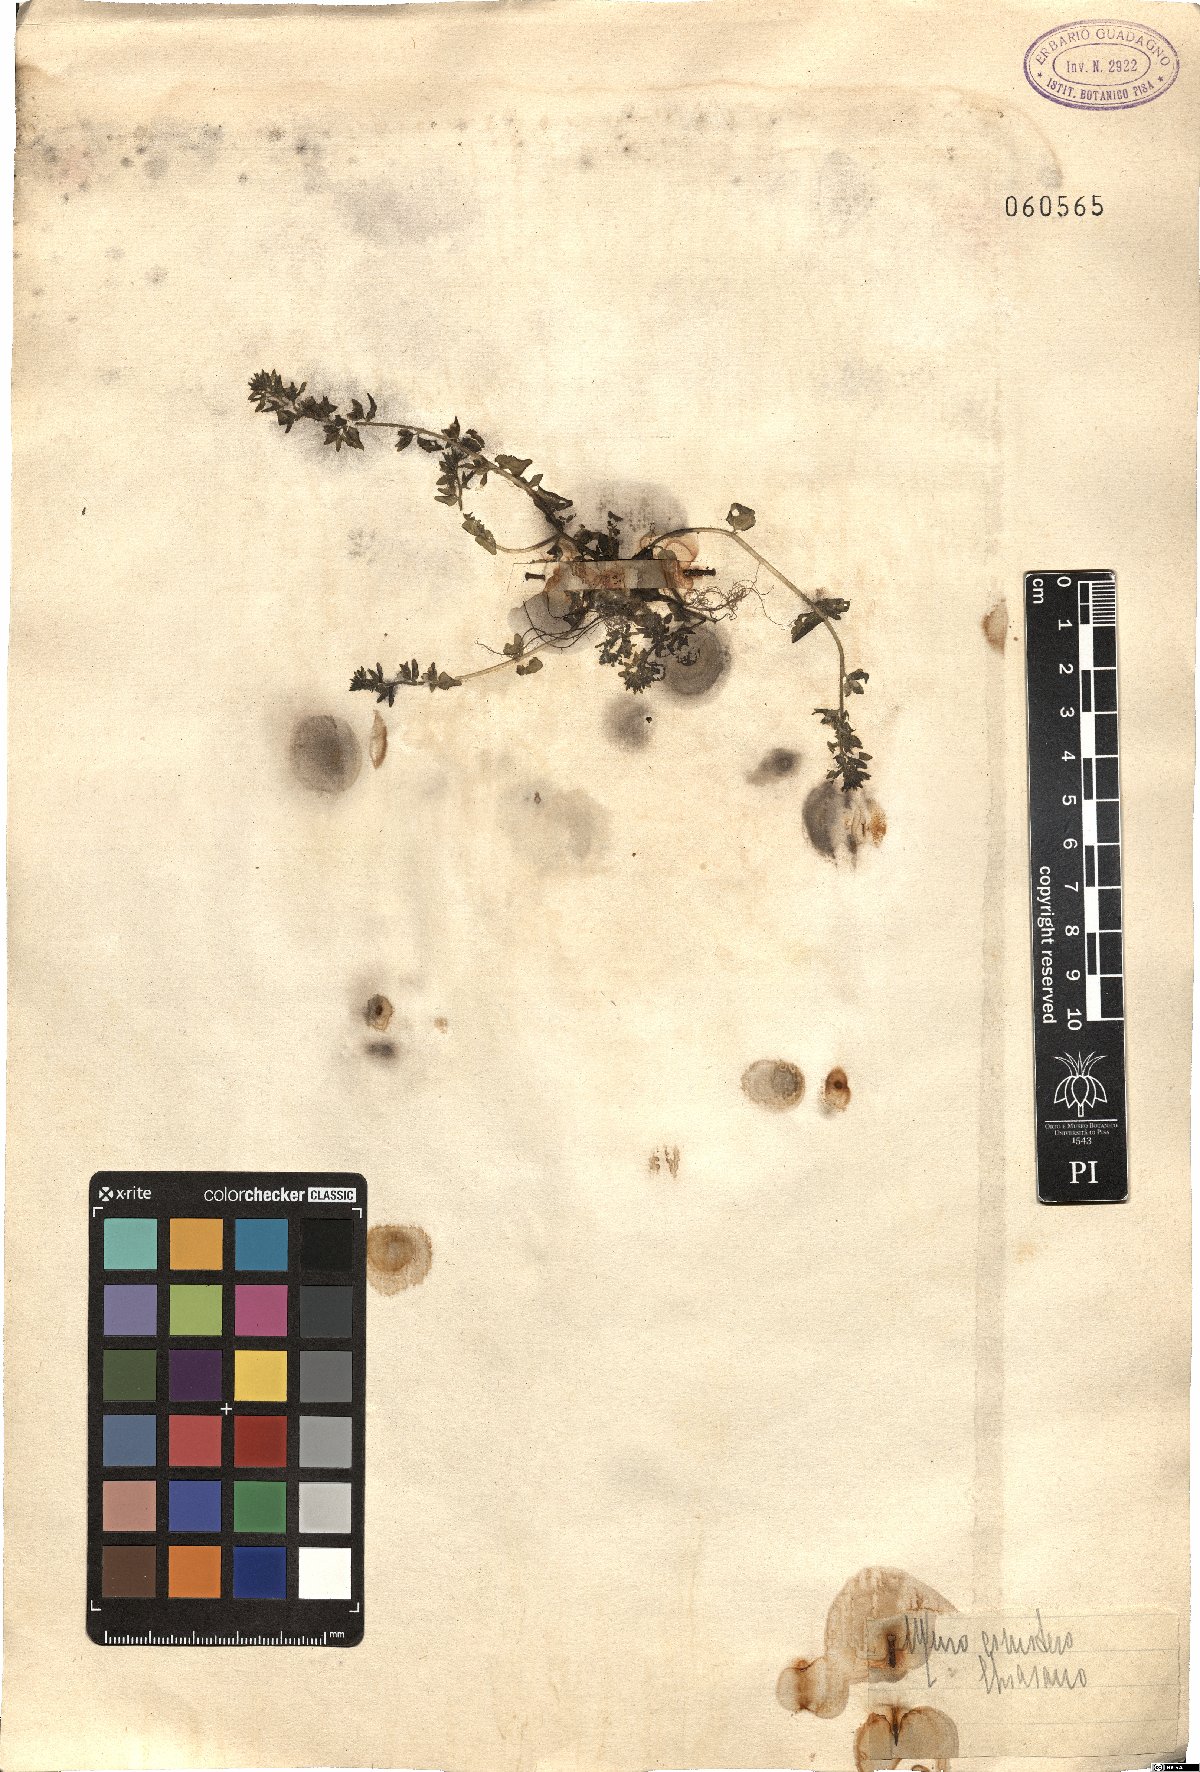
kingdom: Plantae
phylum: Tracheophyta
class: Magnoliopsida
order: Lamiales
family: Plantaginaceae
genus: Veronica
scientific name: Veronica
